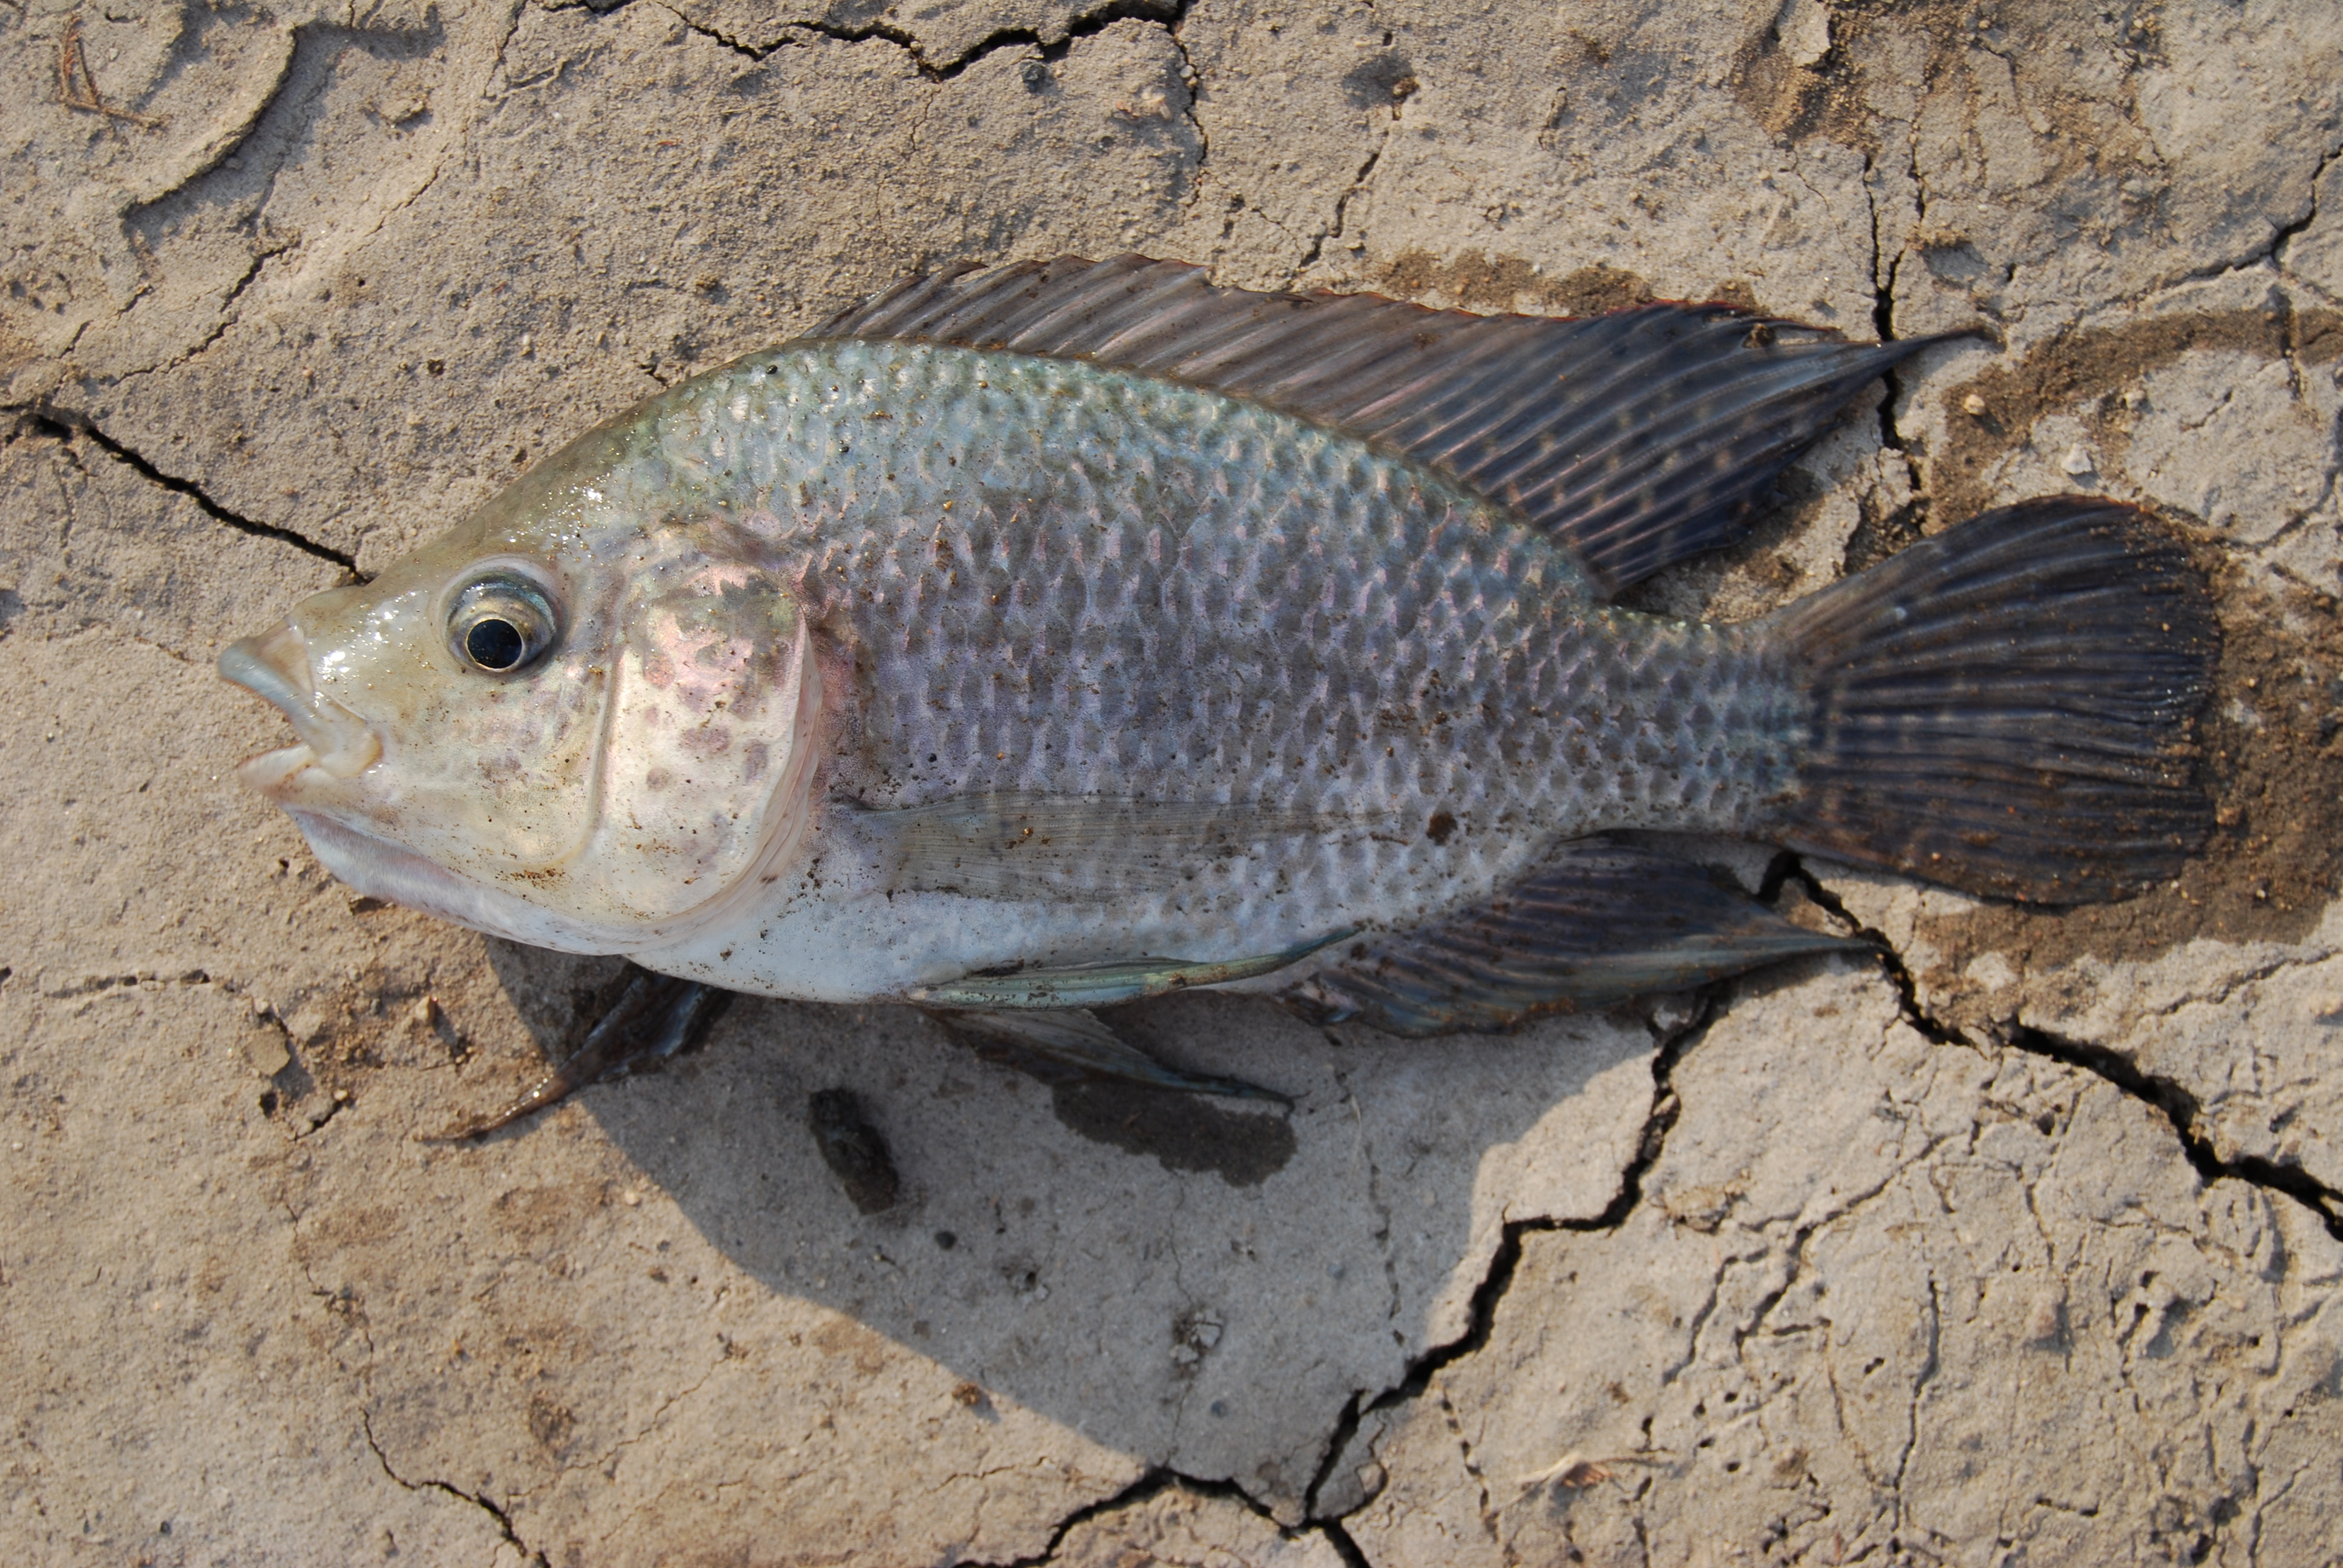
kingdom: Animalia
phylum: Chordata
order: Perciformes
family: Cichlidae
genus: Oreochromis
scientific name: Oreochromis
